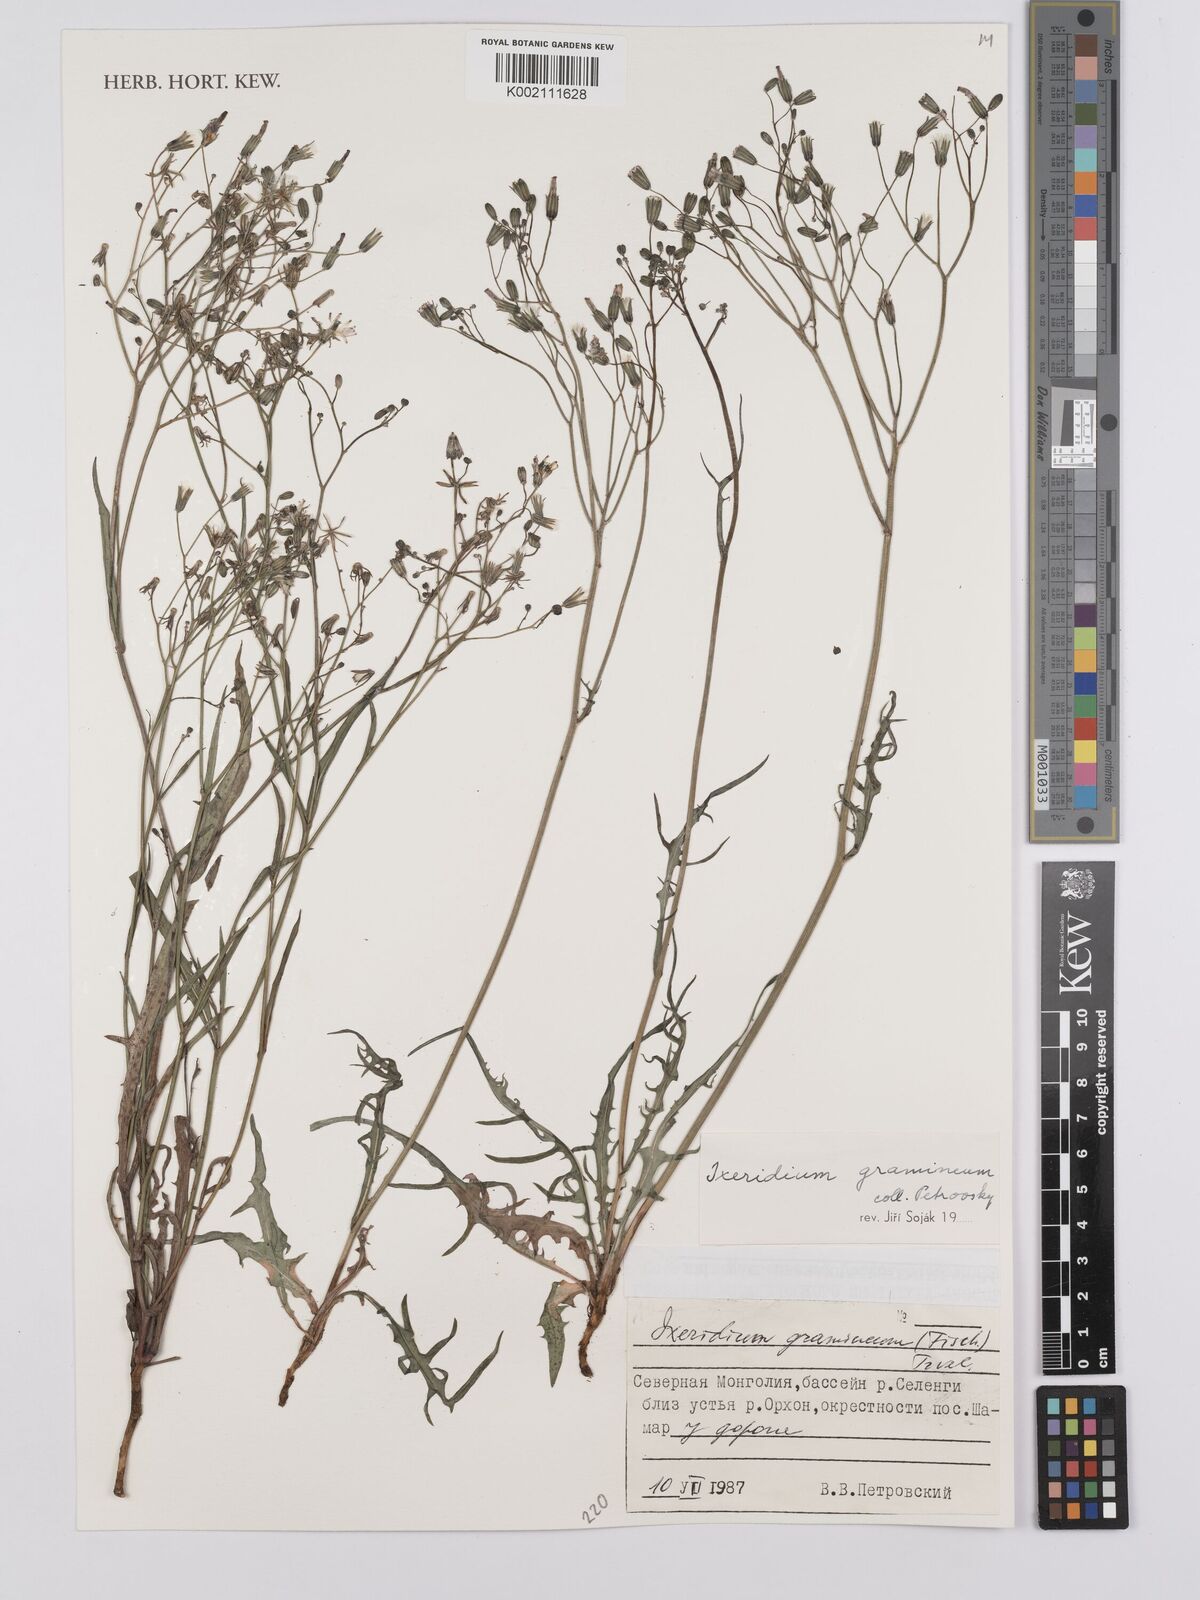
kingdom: Plantae
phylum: Tracheophyta
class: Magnoliopsida
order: Asterales
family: Asteraceae
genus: Ixeridium
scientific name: Ixeridium
